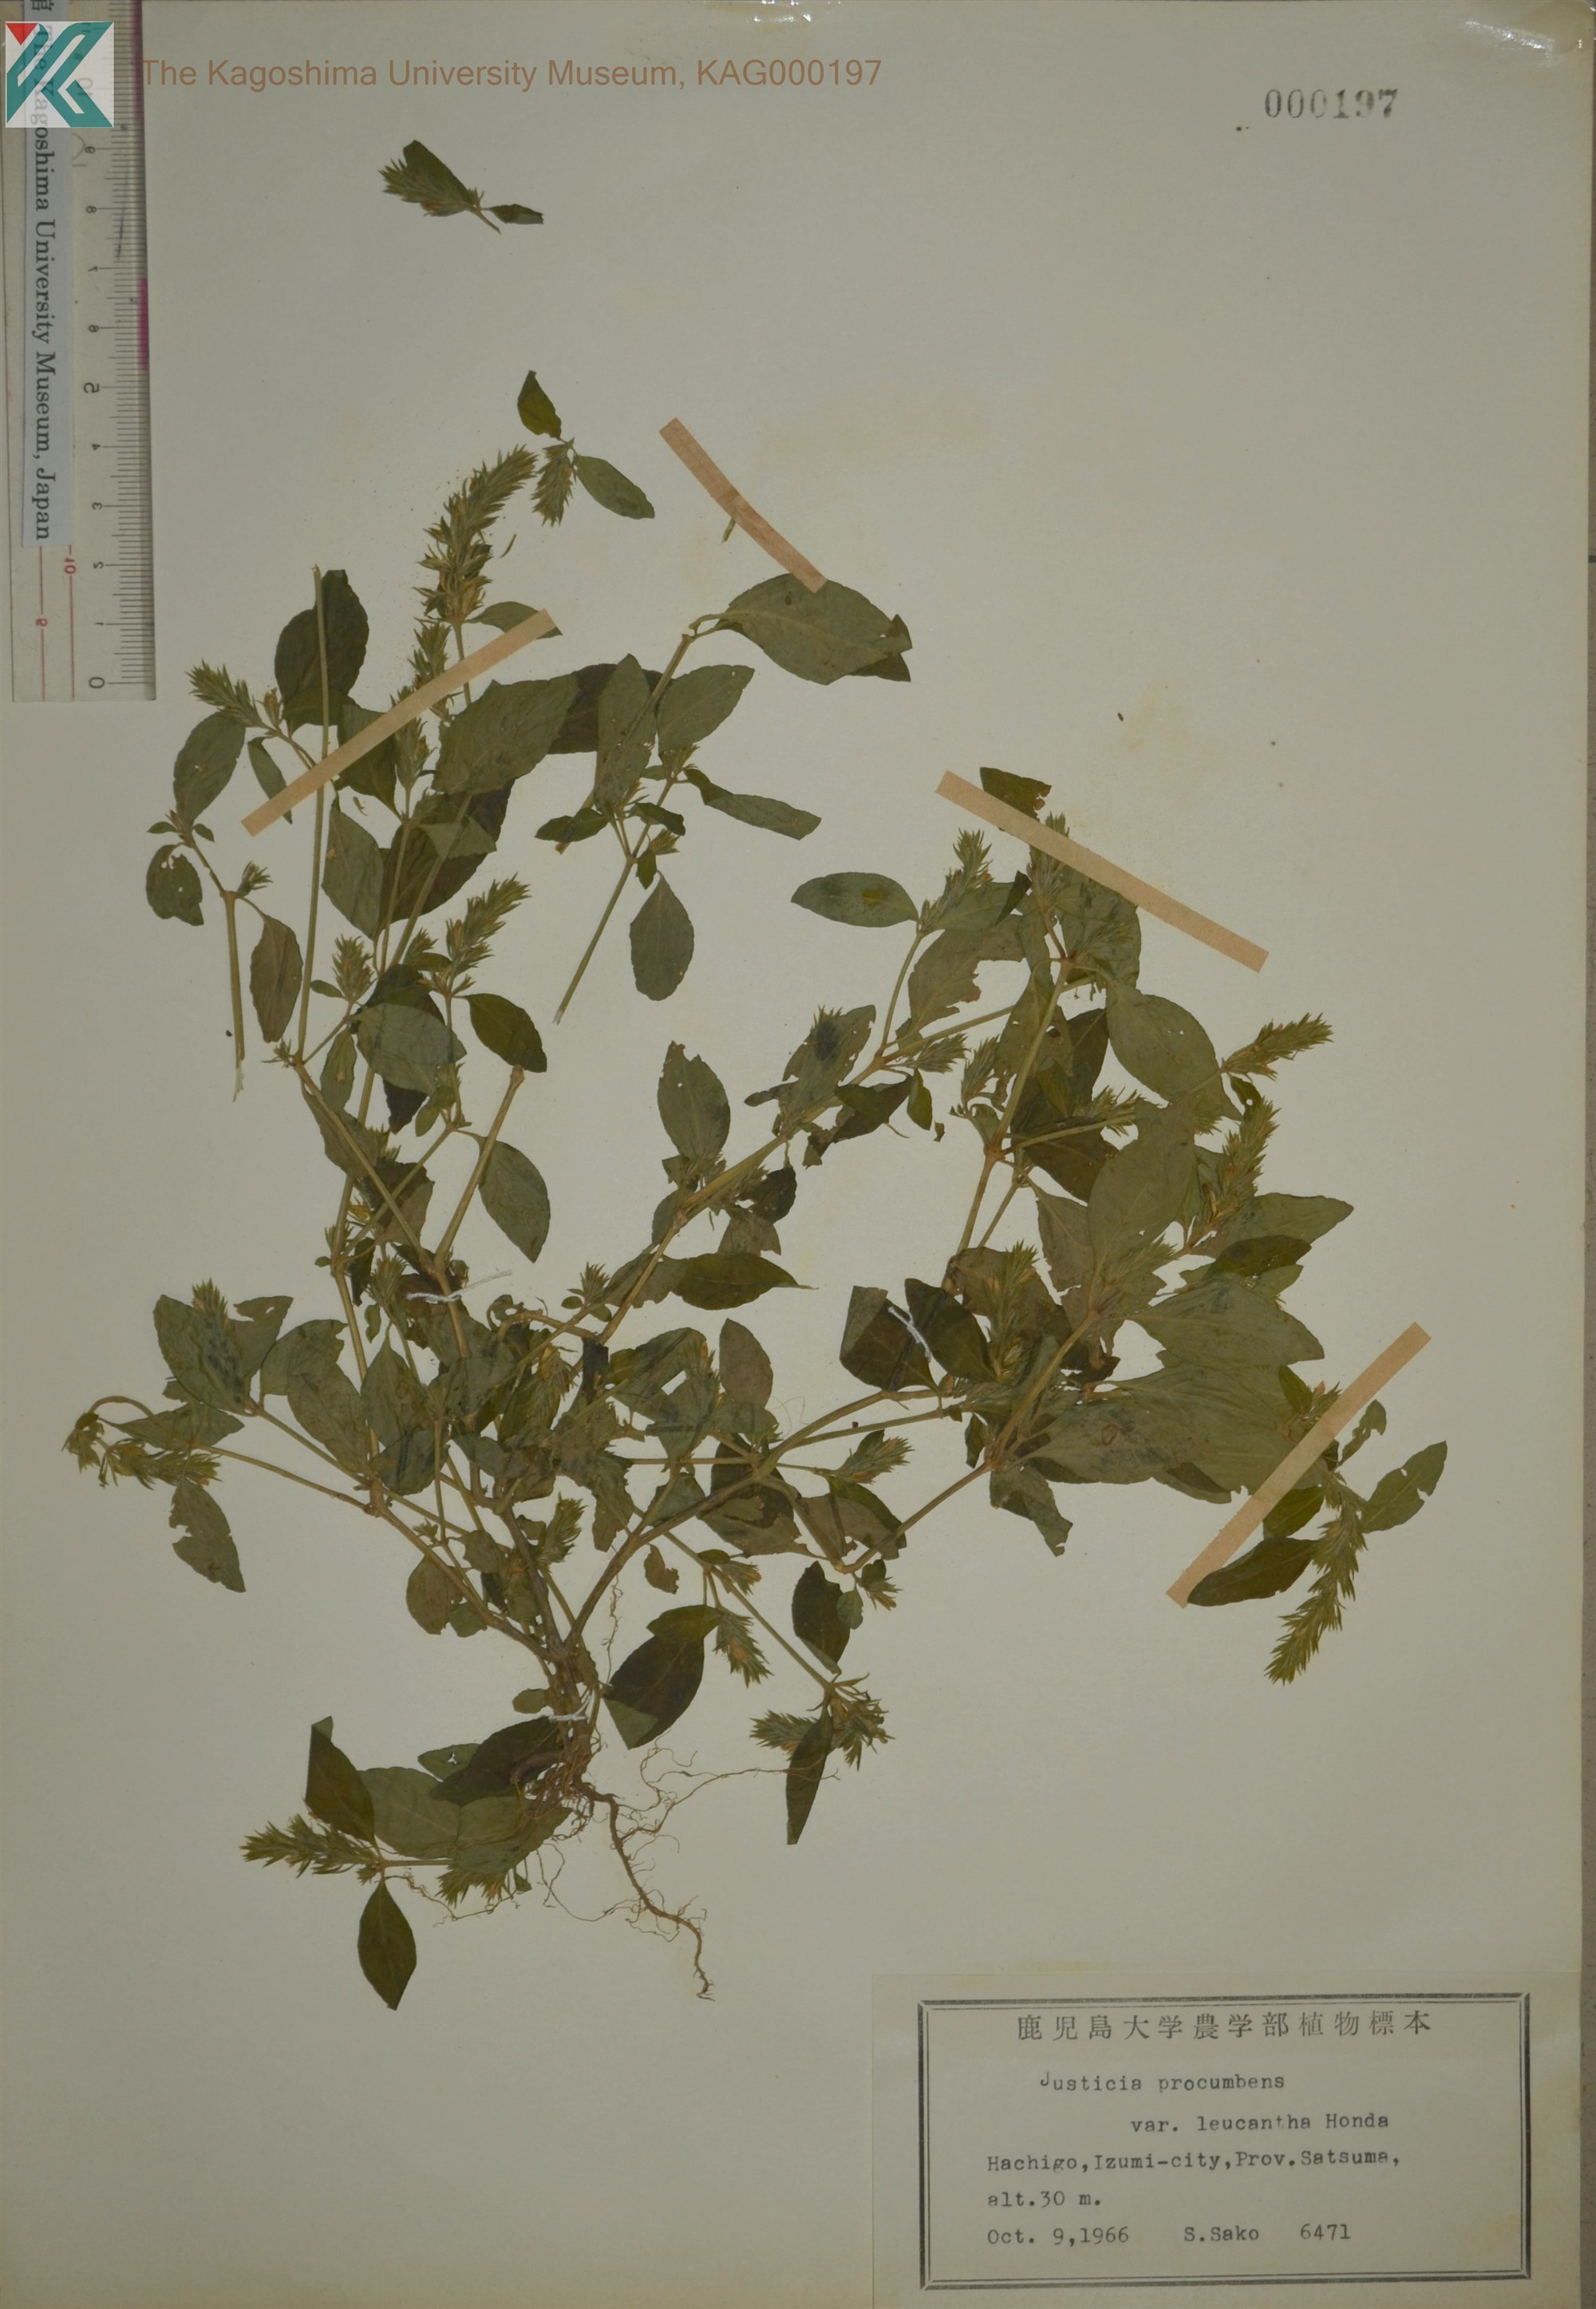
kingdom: Plantae
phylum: Tracheophyta
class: Magnoliopsida
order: Lamiales
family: Acanthaceae
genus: Rostellularia
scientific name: Rostellularia procumbens
